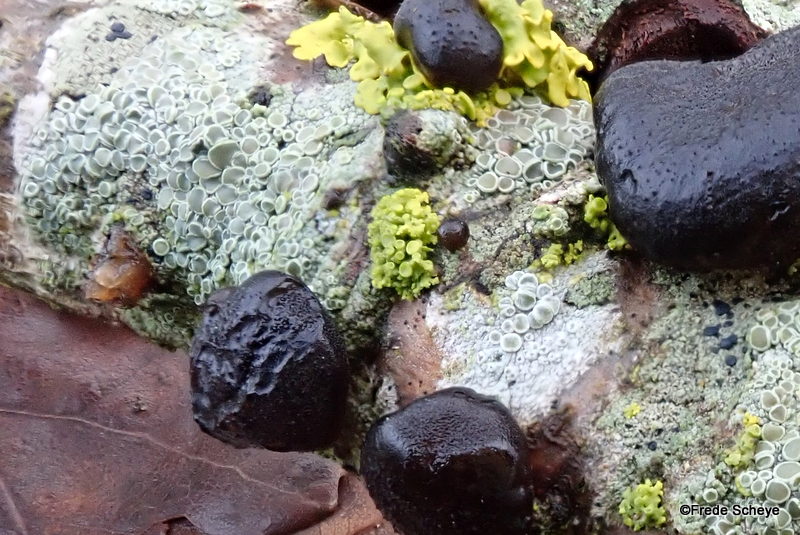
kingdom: Fungi
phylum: Ascomycota
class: Lecanoromycetes
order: Teloschistales
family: Teloschistaceae
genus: Polycauliona
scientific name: Polycauliona polycarpa
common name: mangefrugtet orangelav
